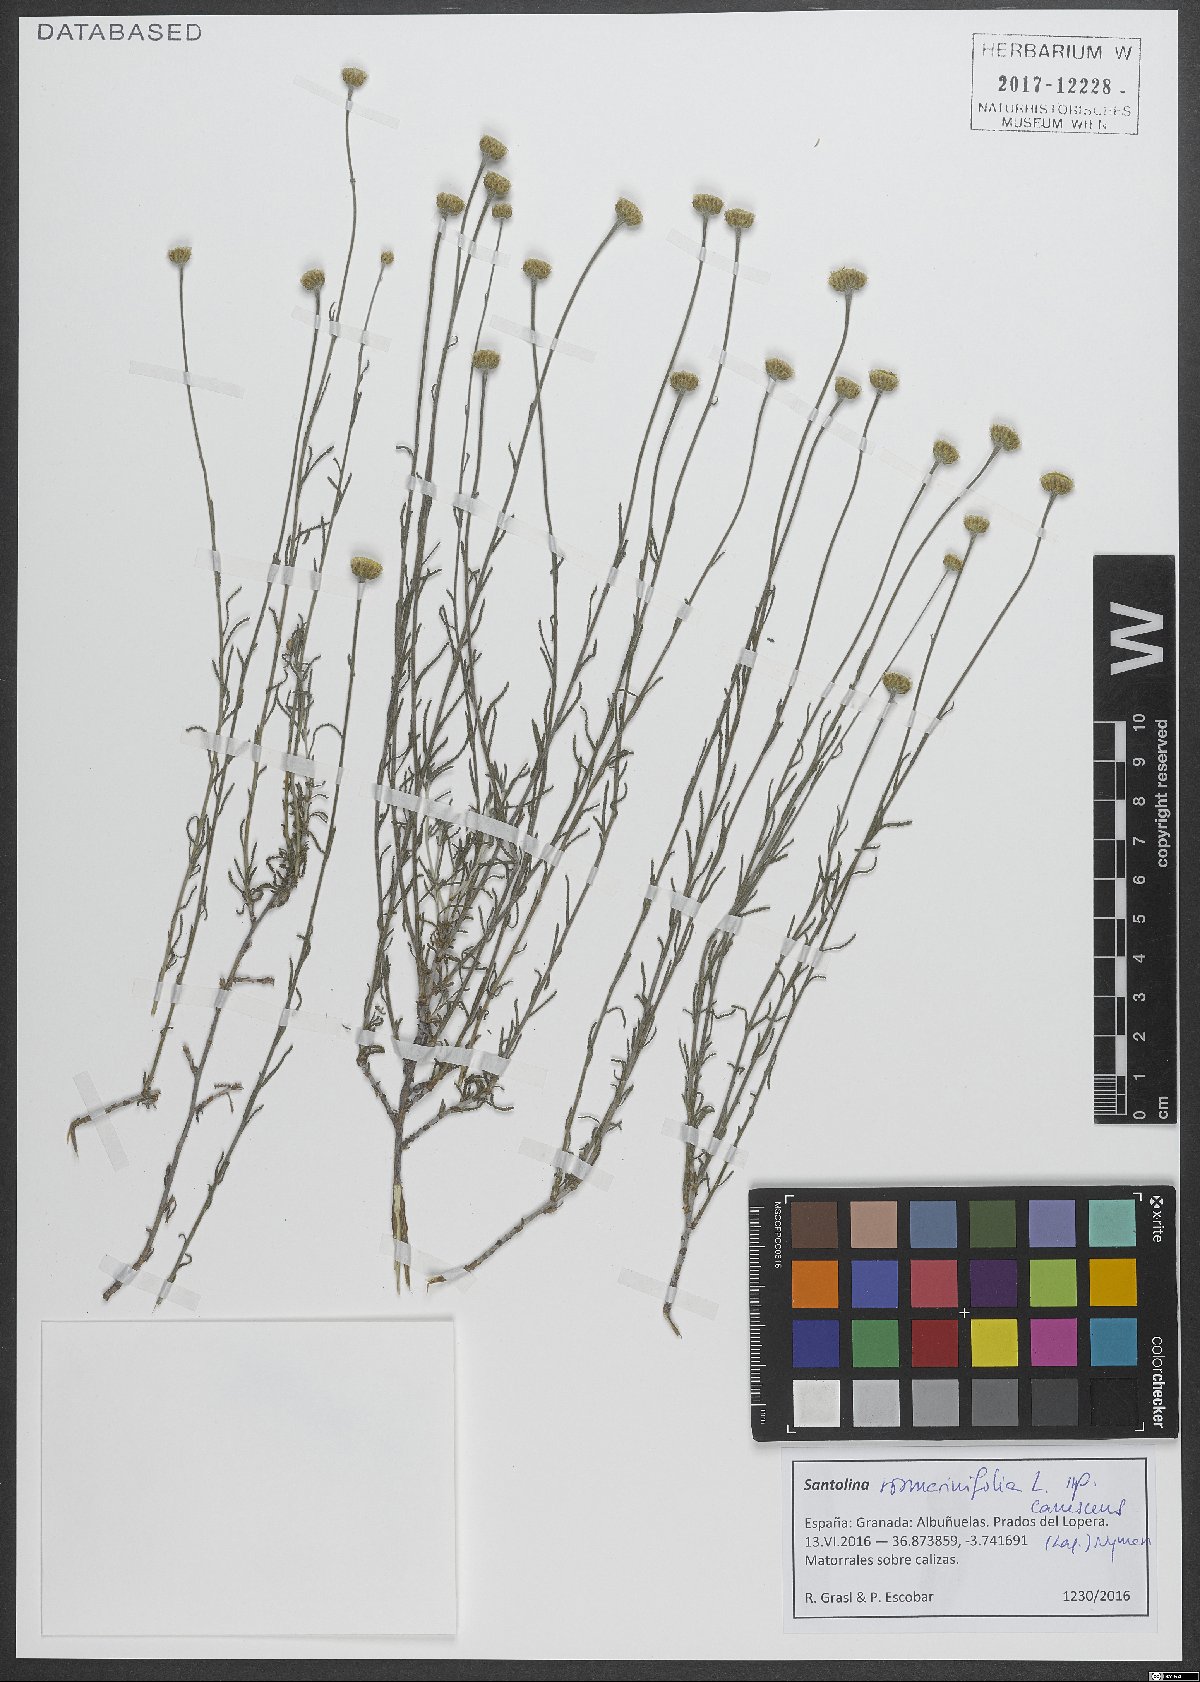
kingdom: Plantae
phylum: Tracheophyta
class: Magnoliopsida
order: Asterales
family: Asteraceae
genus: Santolina
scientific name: Santolina canescens
